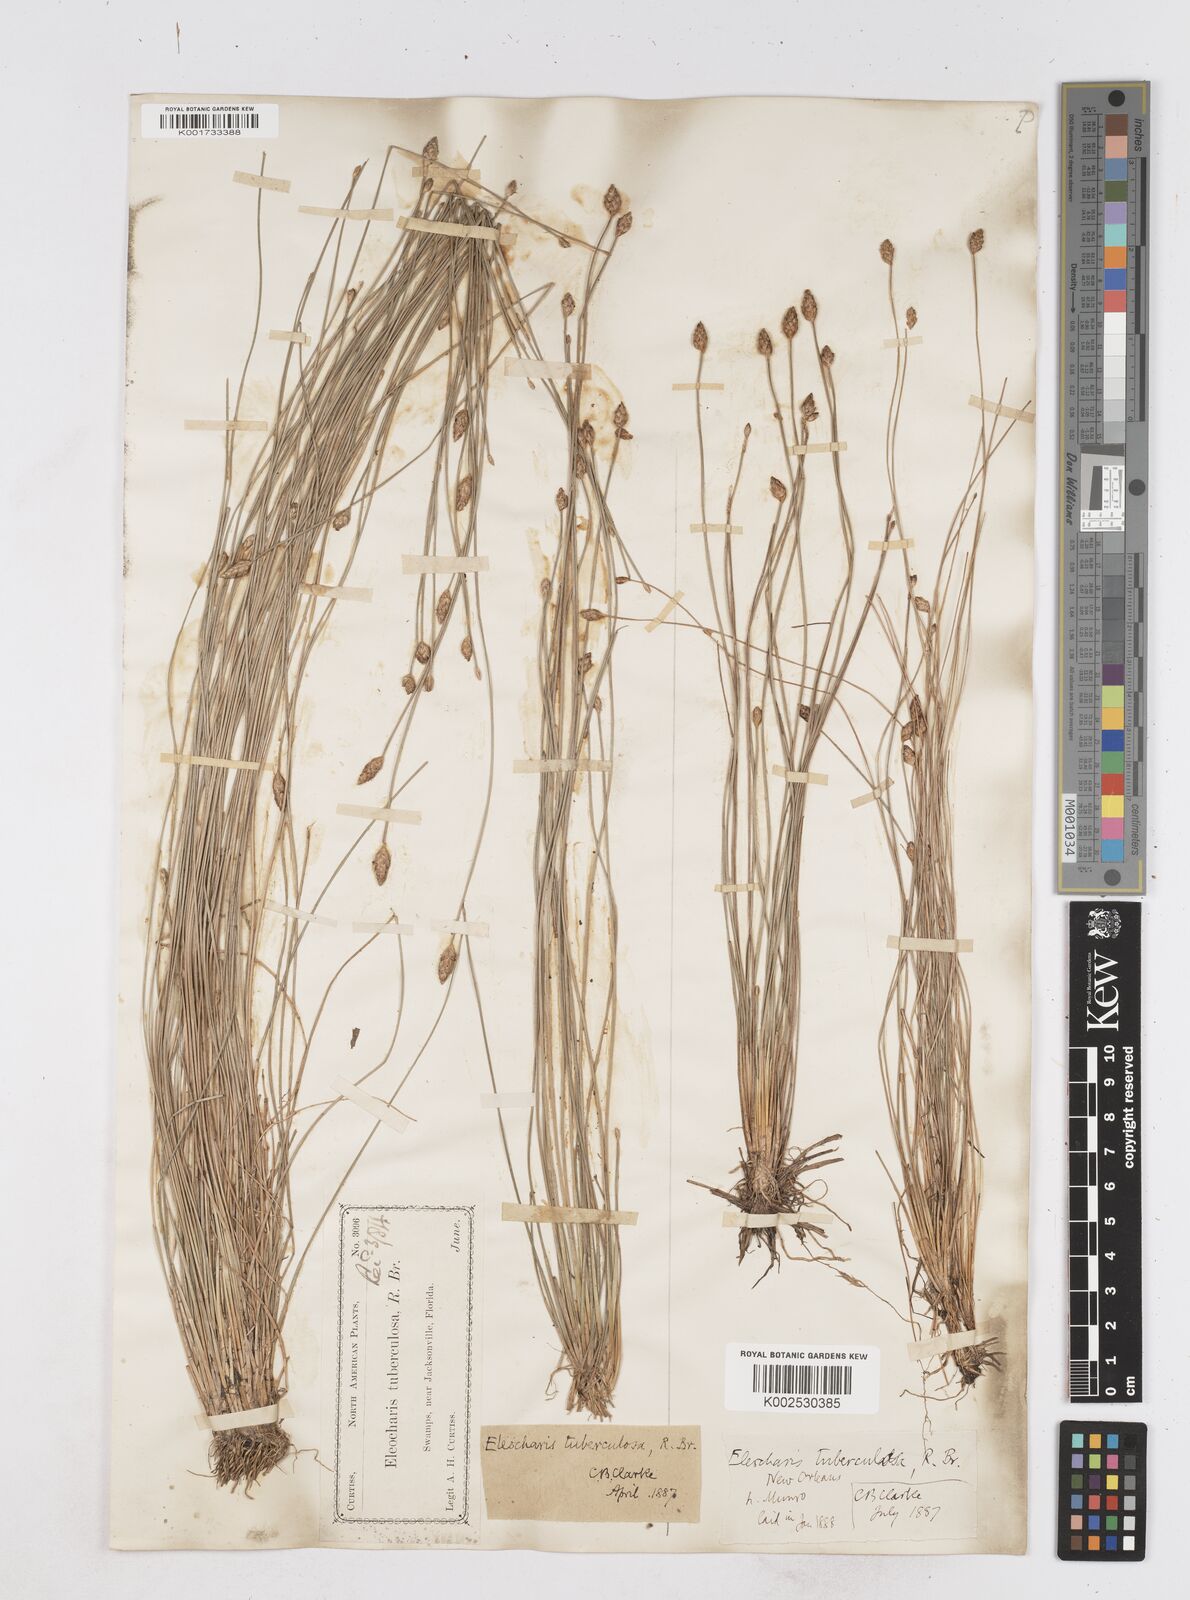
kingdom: Plantae
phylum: Tracheophyta
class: Liliopsida
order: Poales
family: Cyperaceae
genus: Eleocharis
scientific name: Eleocharis tuberculosa
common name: Cone-cup spikerush
